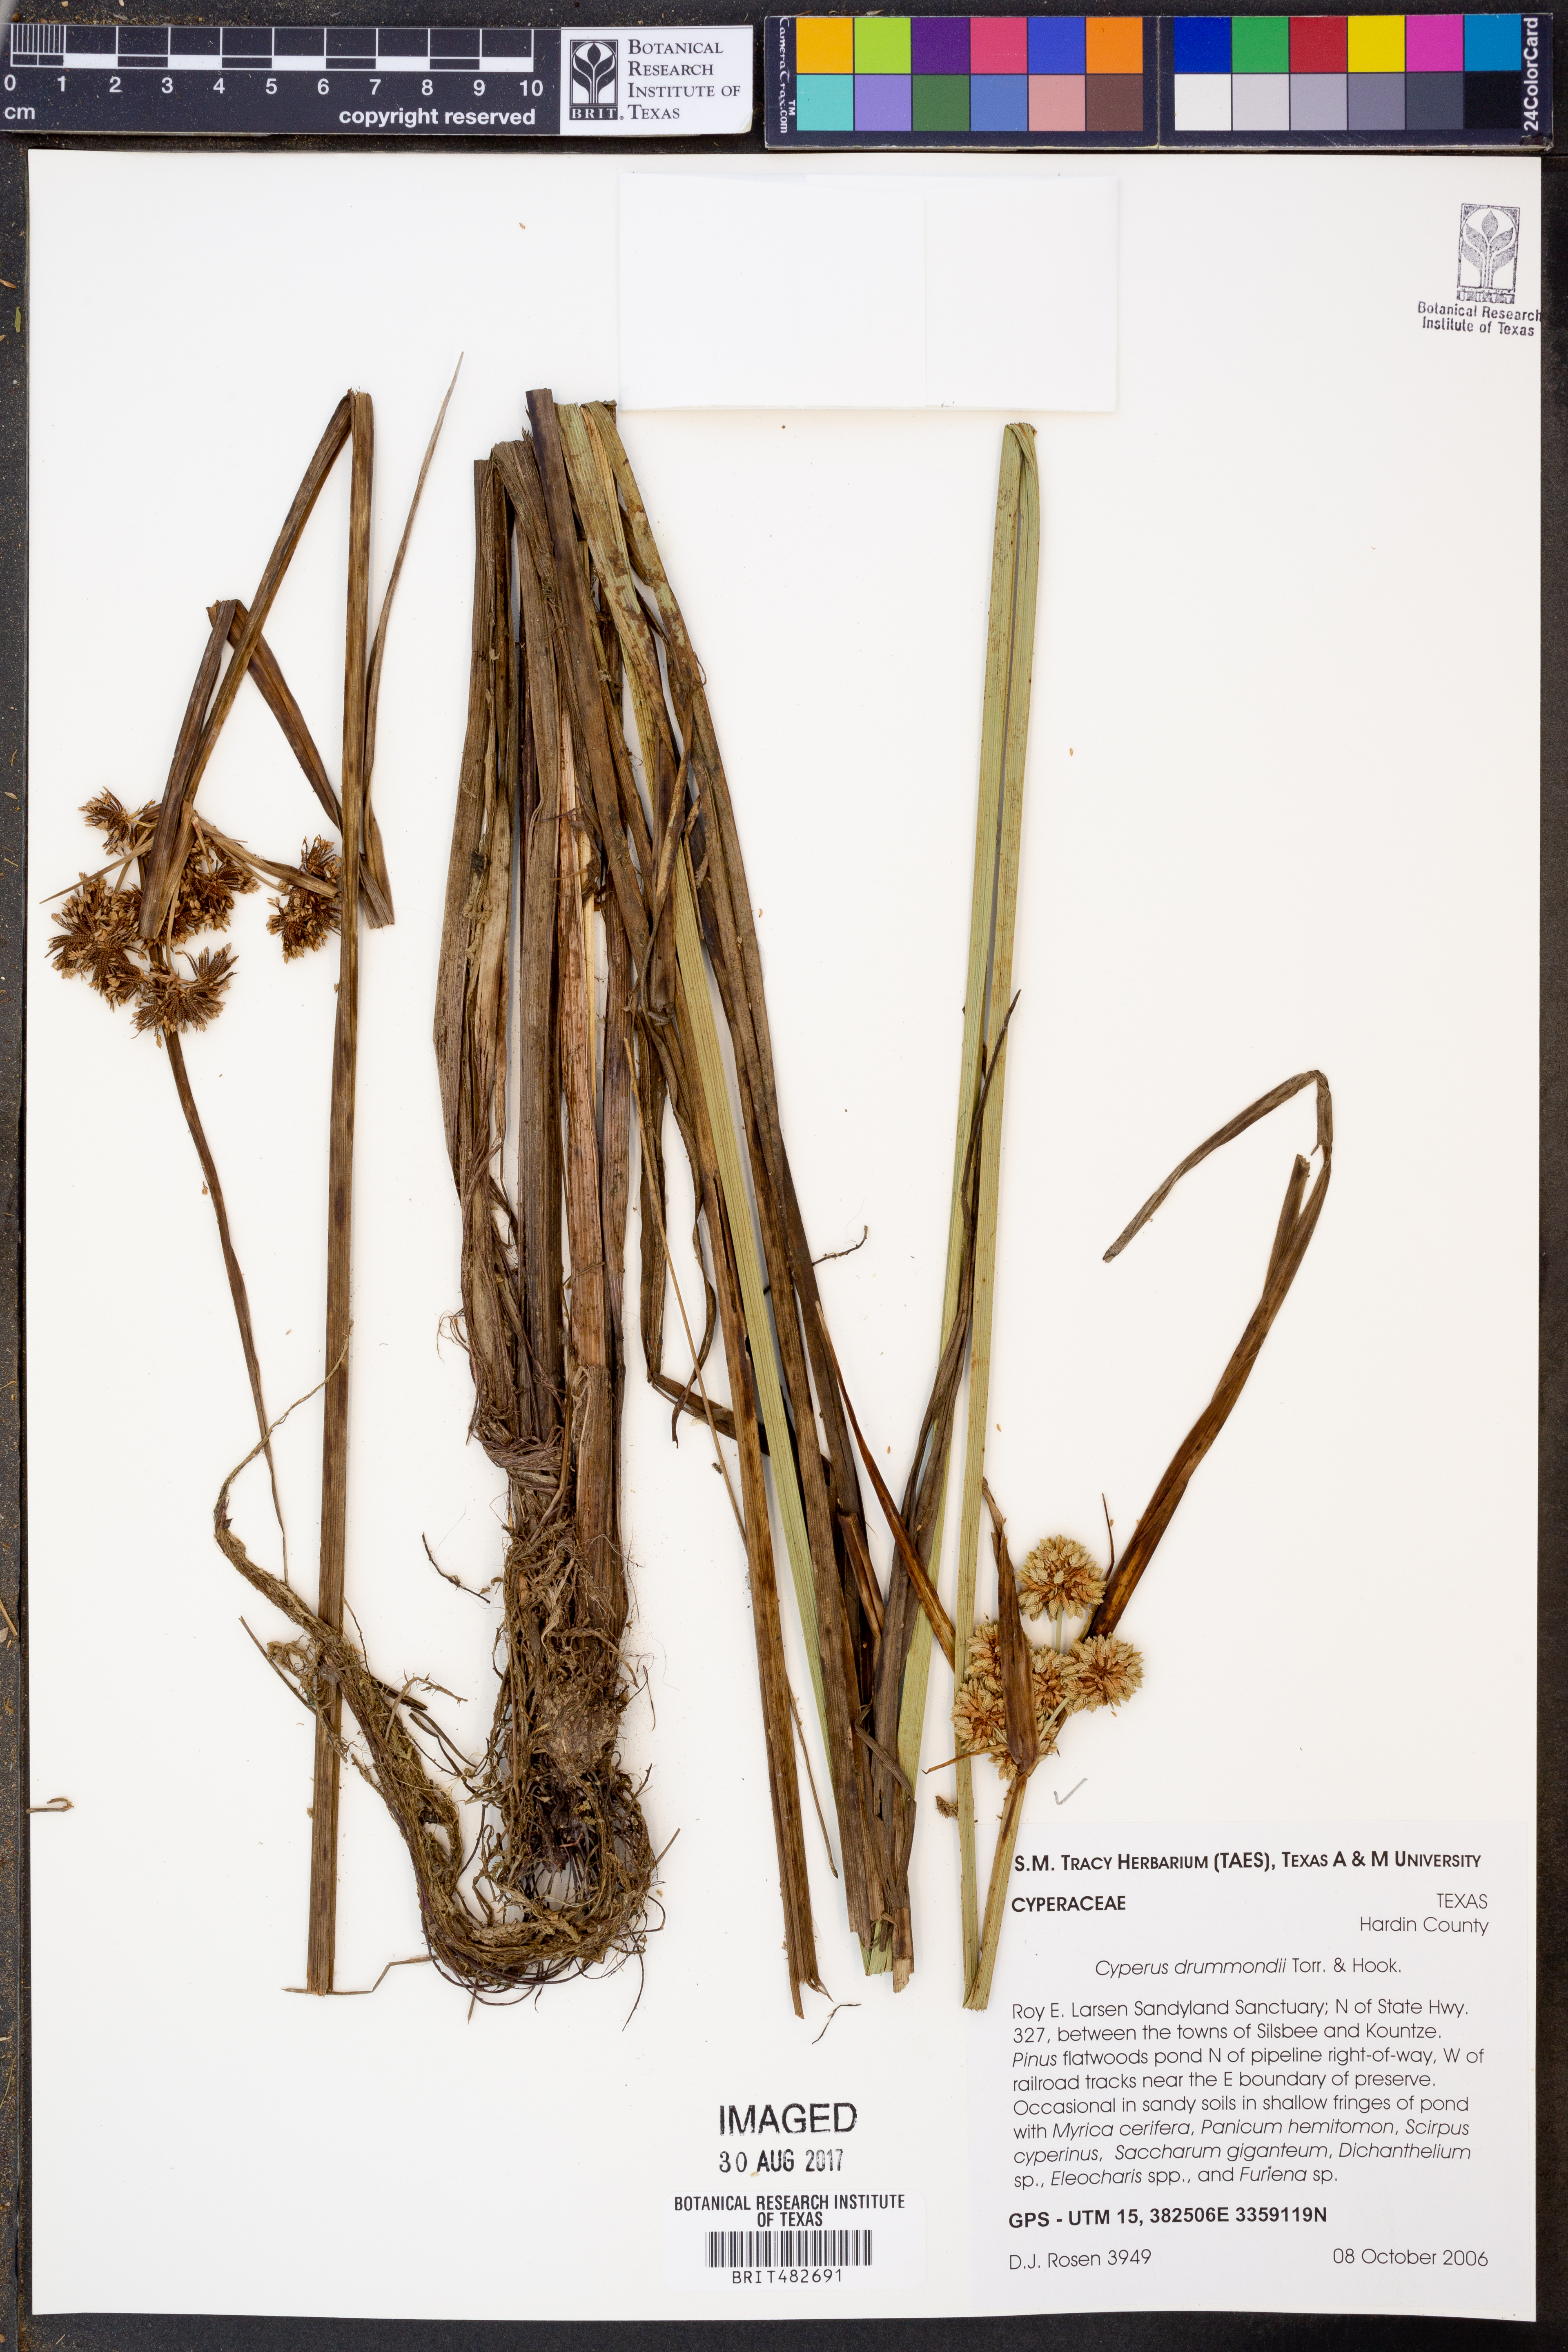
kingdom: Plantae
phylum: Tracheophyta
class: Liliopsida
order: Poales
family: Cyperaceae
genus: Cyperus
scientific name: Cyperus drummondii
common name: Green flat sedge
